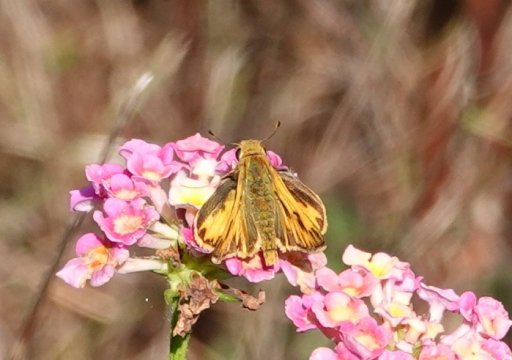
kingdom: Animalia
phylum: Arthropoda
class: Insecta
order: Lepidoptera
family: Hesperiidae
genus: Hylephila
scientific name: Hylephila phyleus
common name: Fiery Skipper
